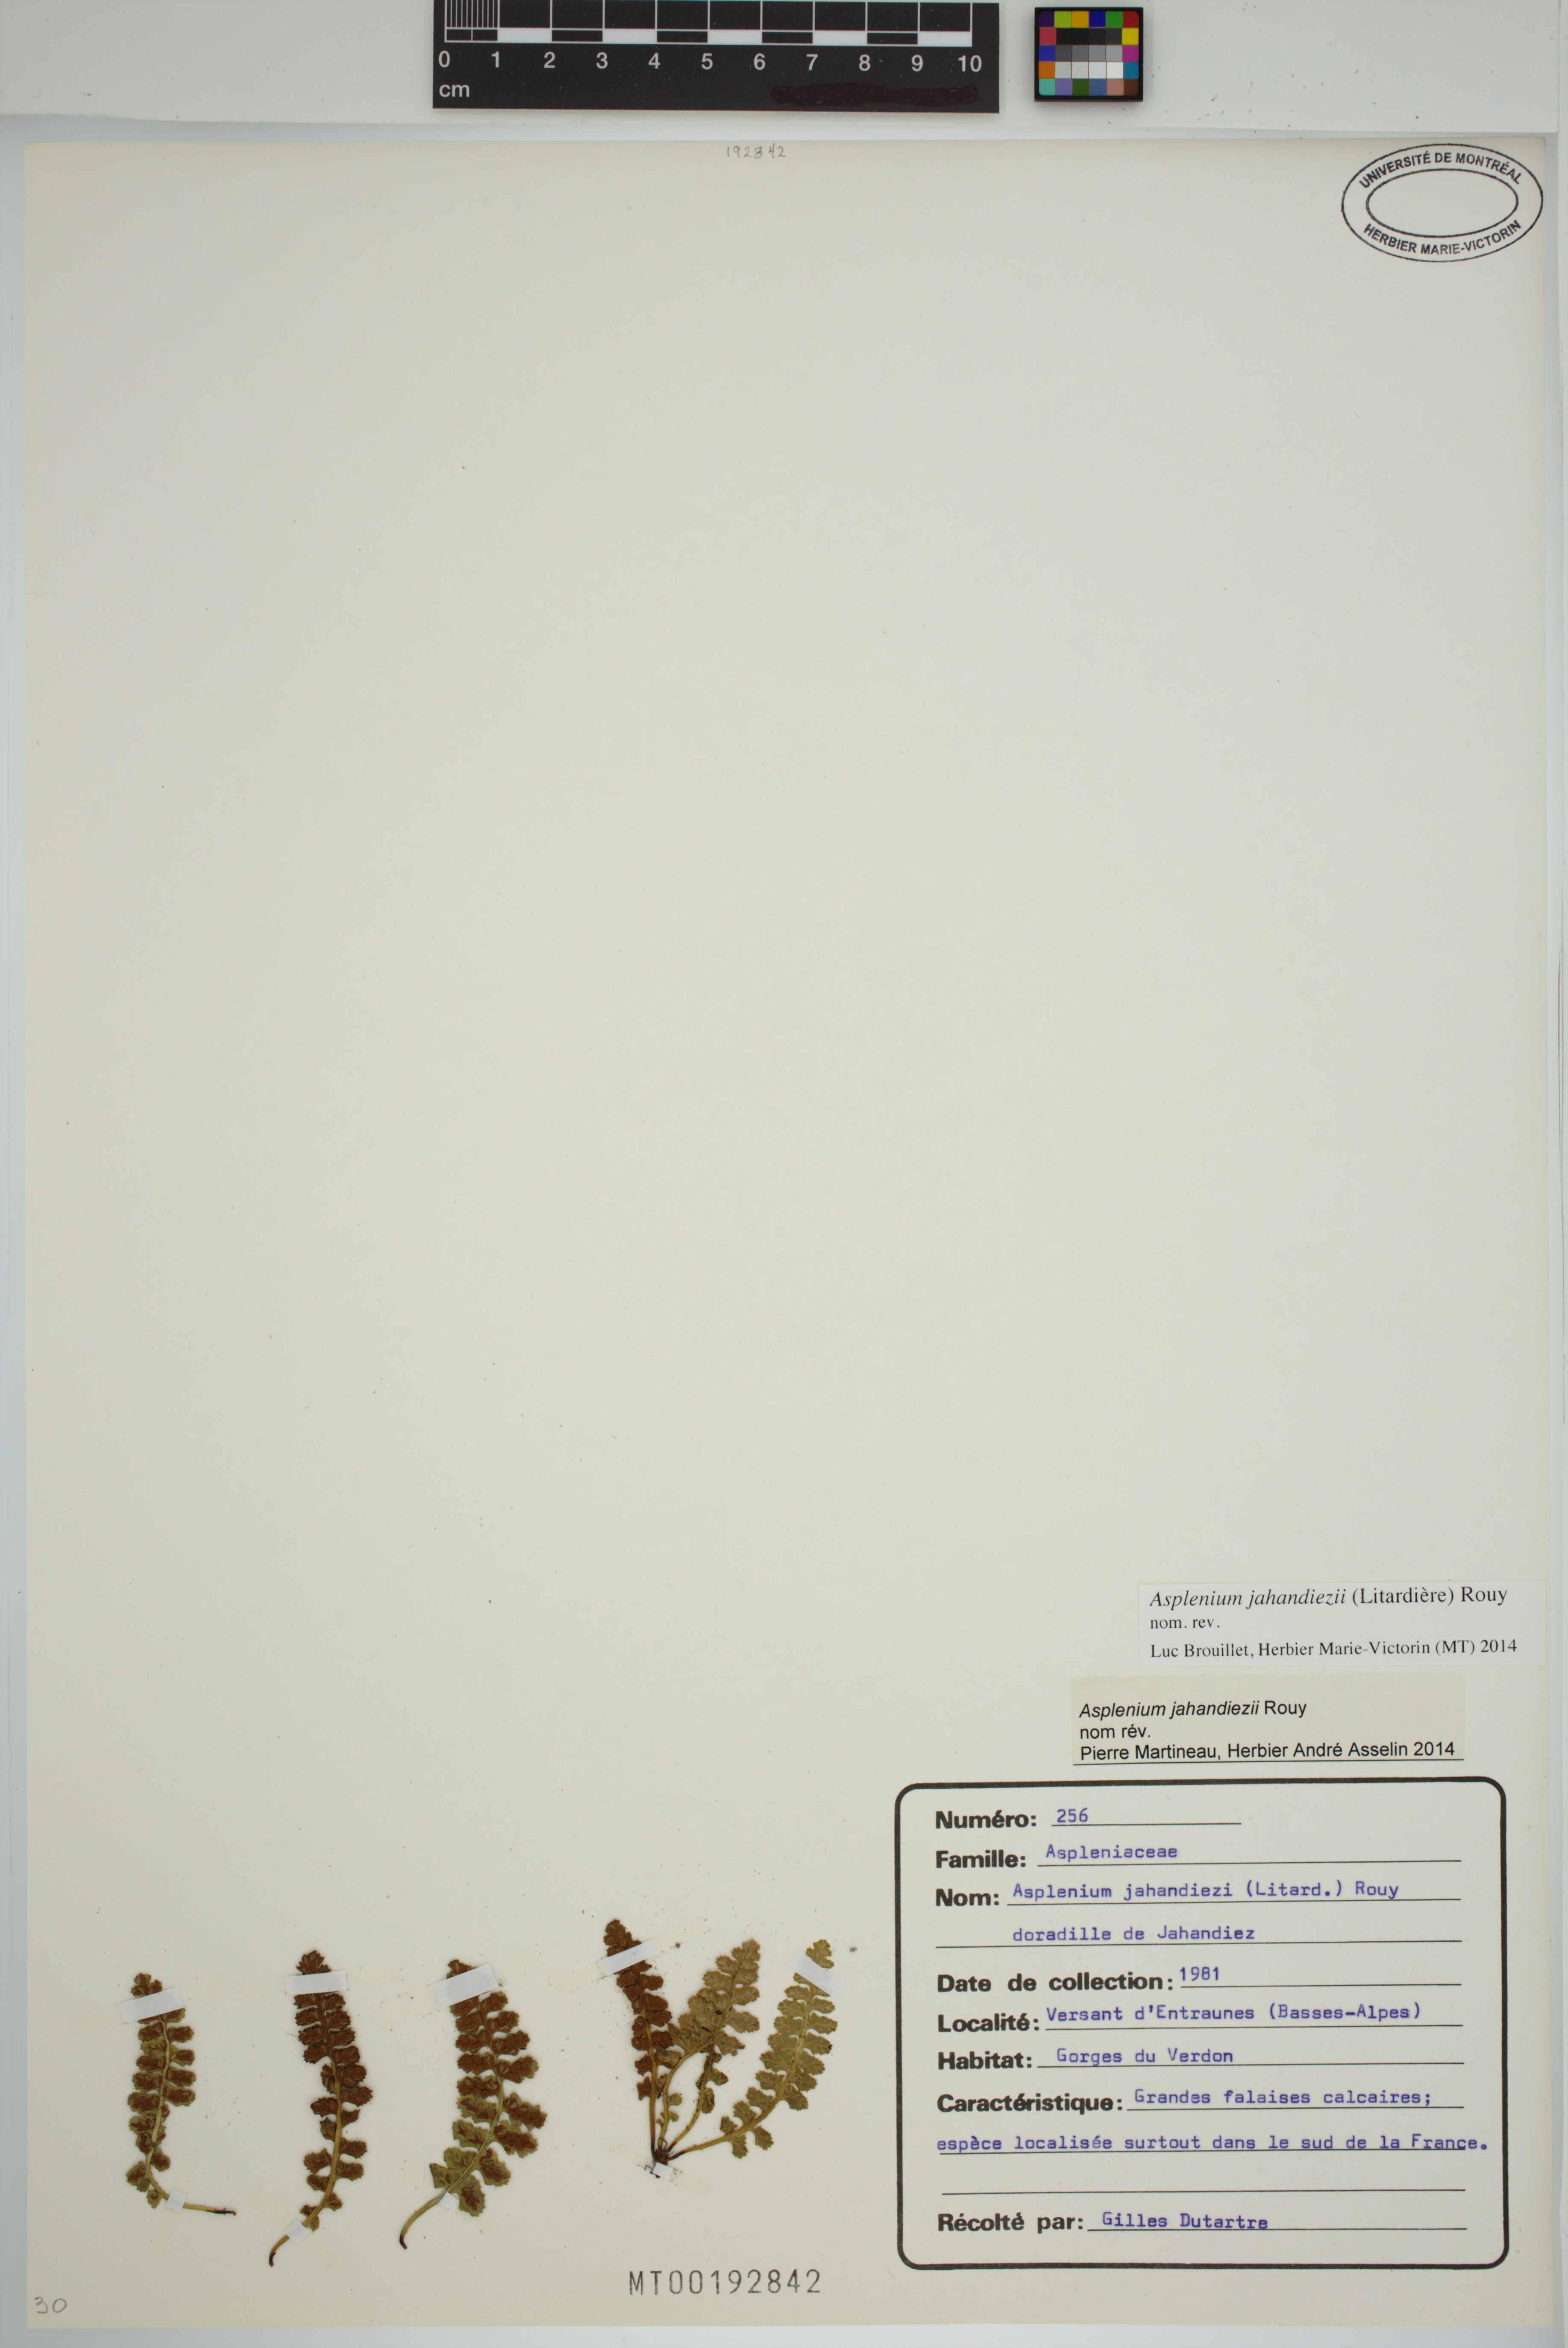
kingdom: Plantae
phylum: Tracheophyta
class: Polypodiopsida
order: Polypodiales
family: Aspleniaceae
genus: Asplenium
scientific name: Asplenium jahandiezii
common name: Verdon spleenwort
